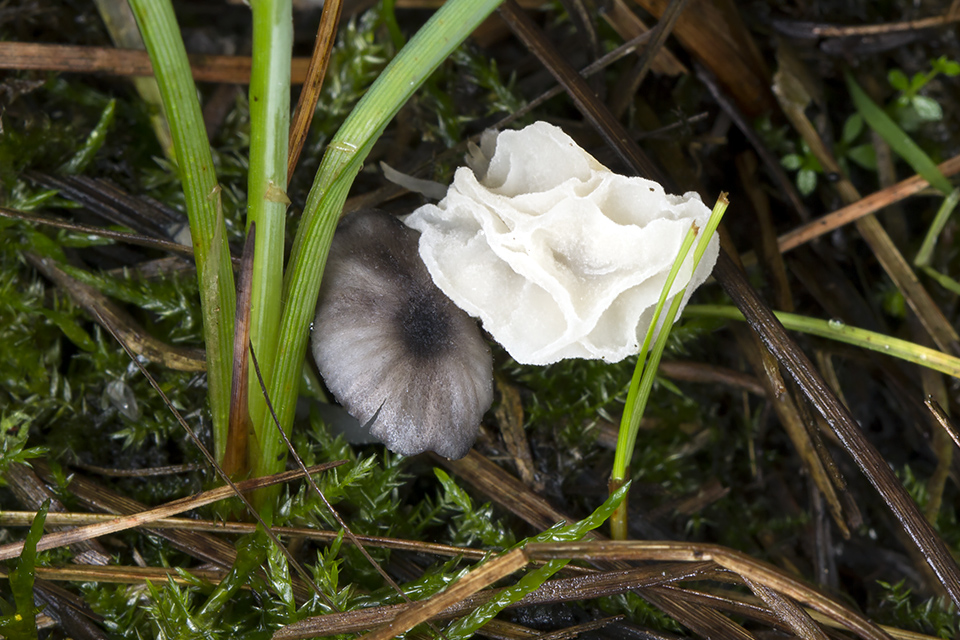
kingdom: Fungi
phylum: Basidiomycota
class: Agaricomycetes
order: Agaricales
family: Entolomataceae
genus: Entoloma
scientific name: Entoloma
